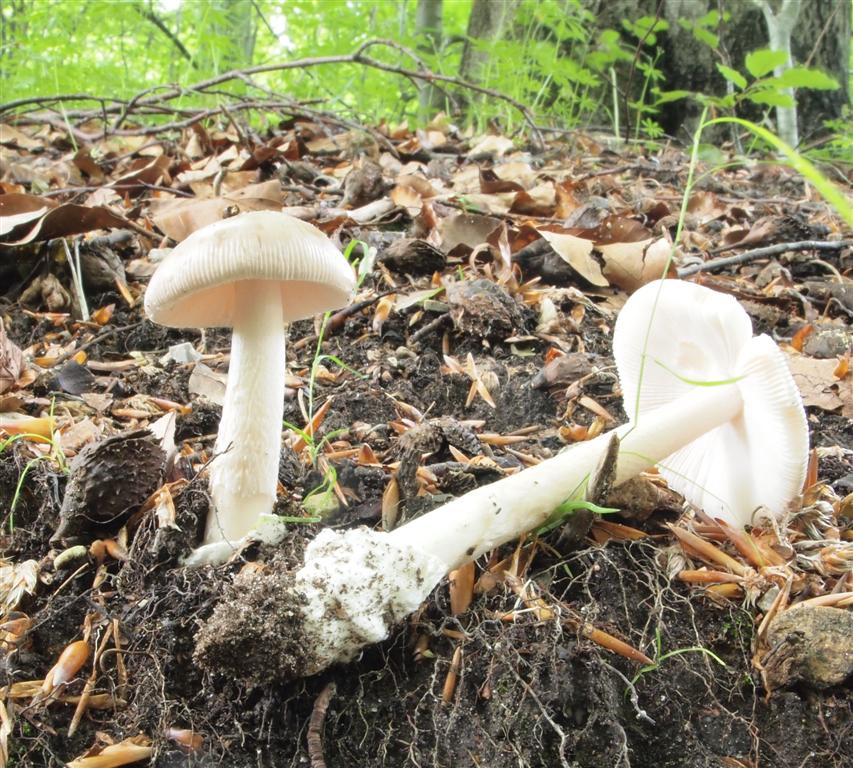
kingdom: Fungi
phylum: Basidiomycota
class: Agaricomycetes
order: Agaricales
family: Amanitaceae
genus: Amanita
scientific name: Amanita vaginata
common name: grå kam-fluesvamp
